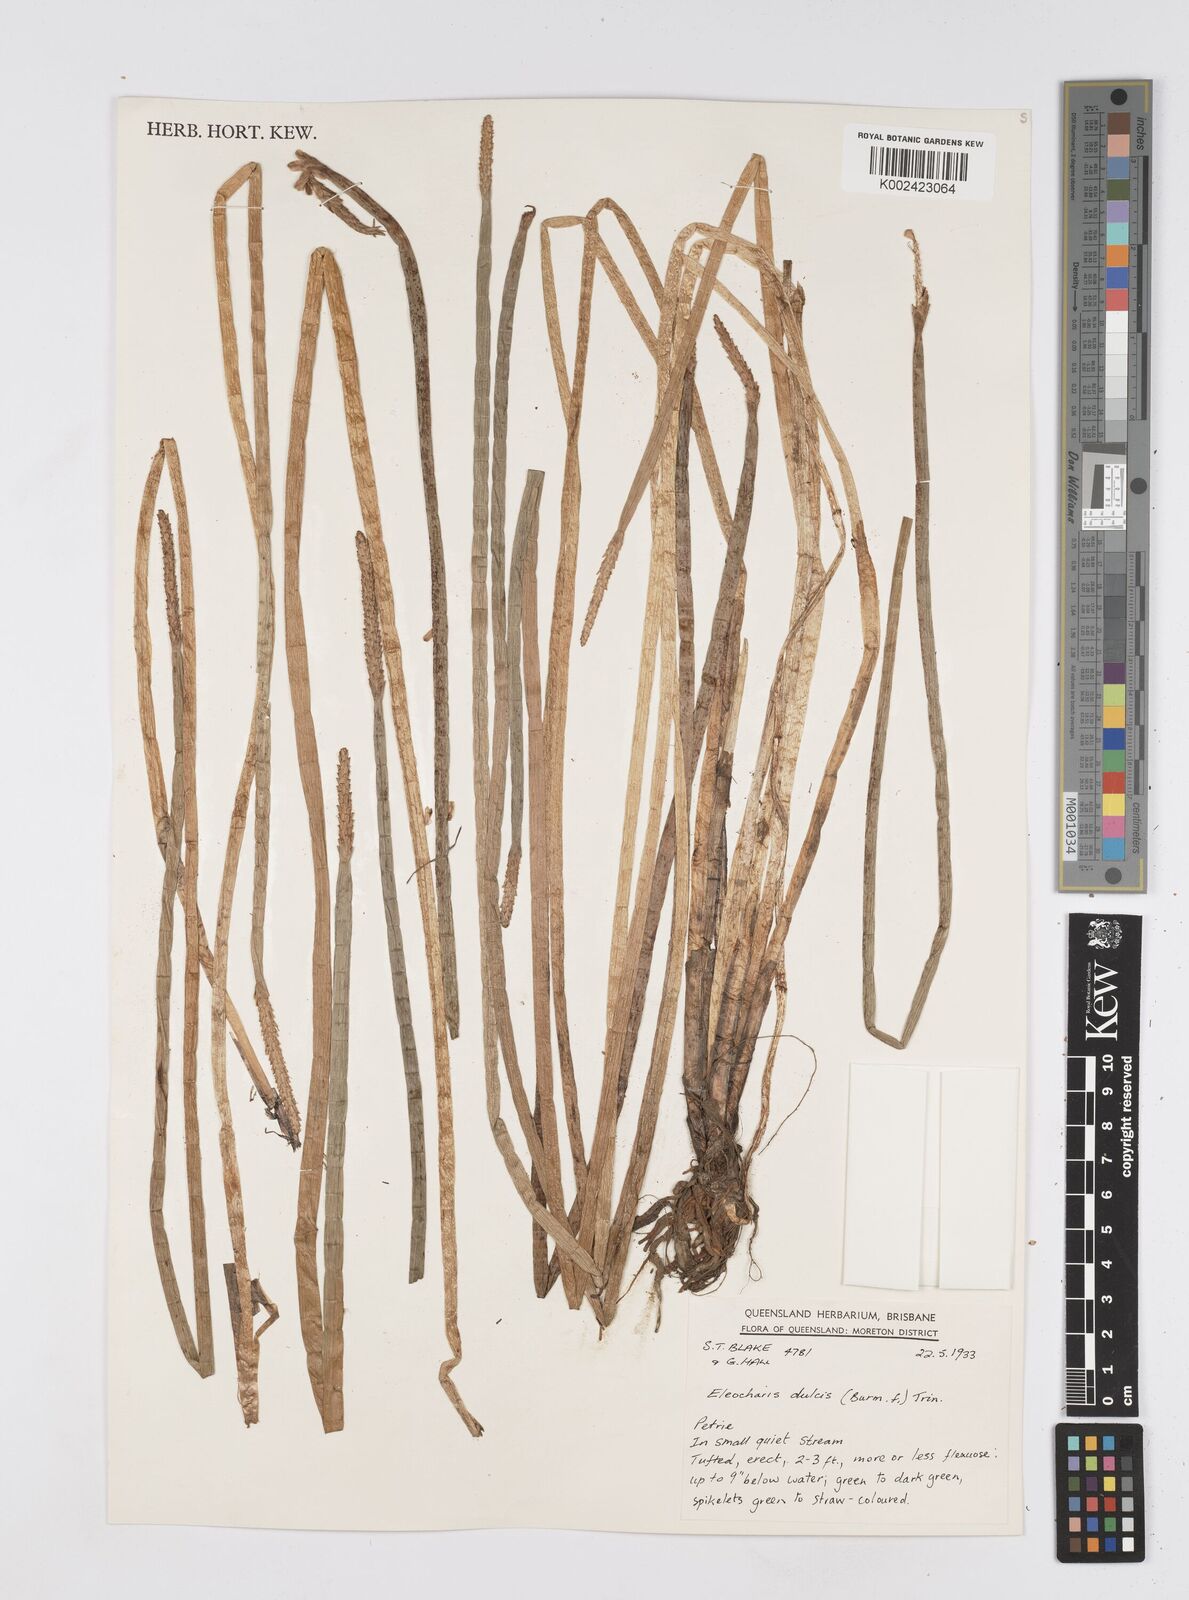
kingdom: Plantae
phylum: Tracheophyta
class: Liliopsida
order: Poales
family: Cyperaceae
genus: Eleocharis
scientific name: Eleocharis dulcis
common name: Chinese water chestnut
